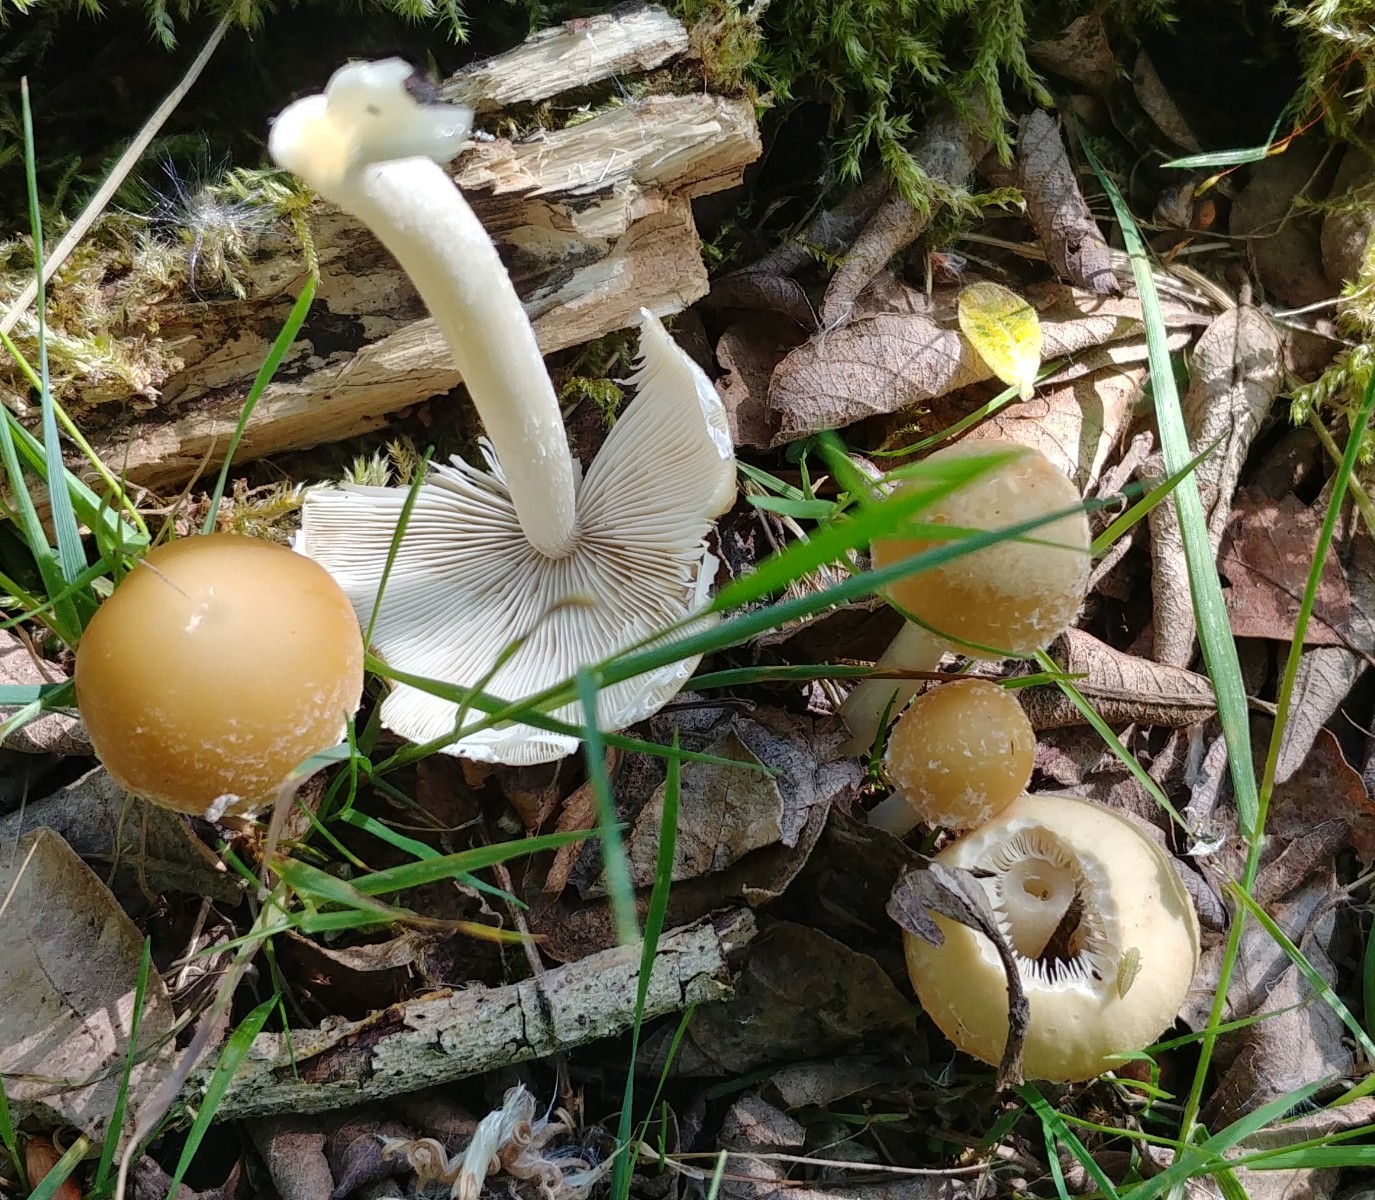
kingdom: Fungi
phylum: Basidiomycota
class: Agaricomycetes
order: Agaricales
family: Psathyrellaceae
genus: Candolleomyces
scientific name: Candolleomyces candolleanus
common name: Candolles mørkhat
